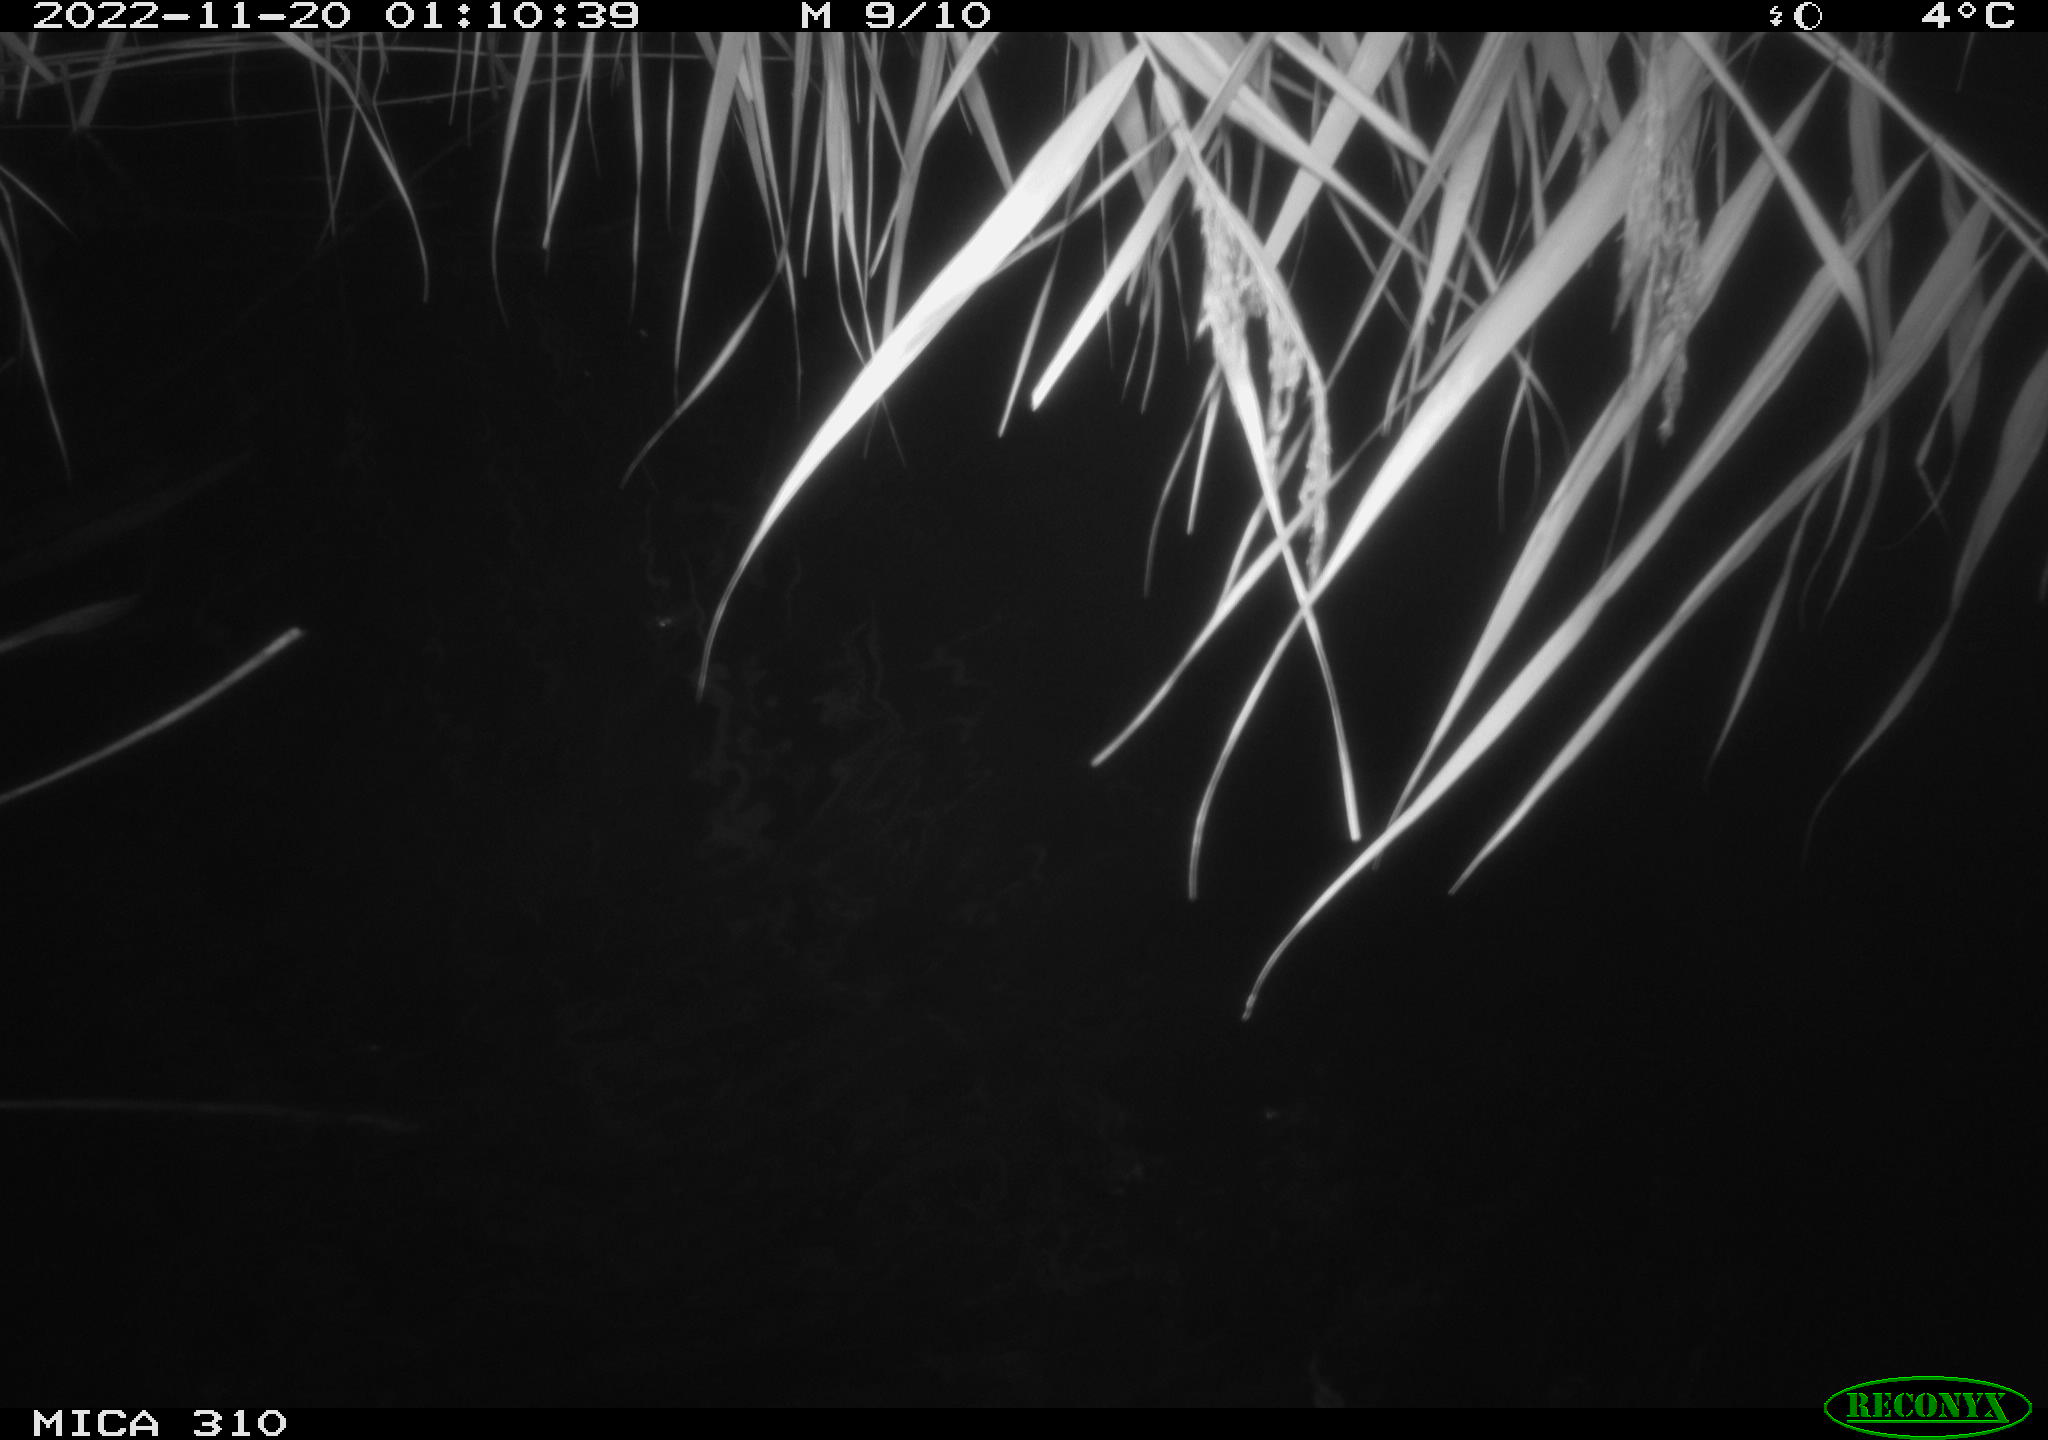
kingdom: Animalia
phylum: Chordata
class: Mammalia
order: Rodentia
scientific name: Rodentia
